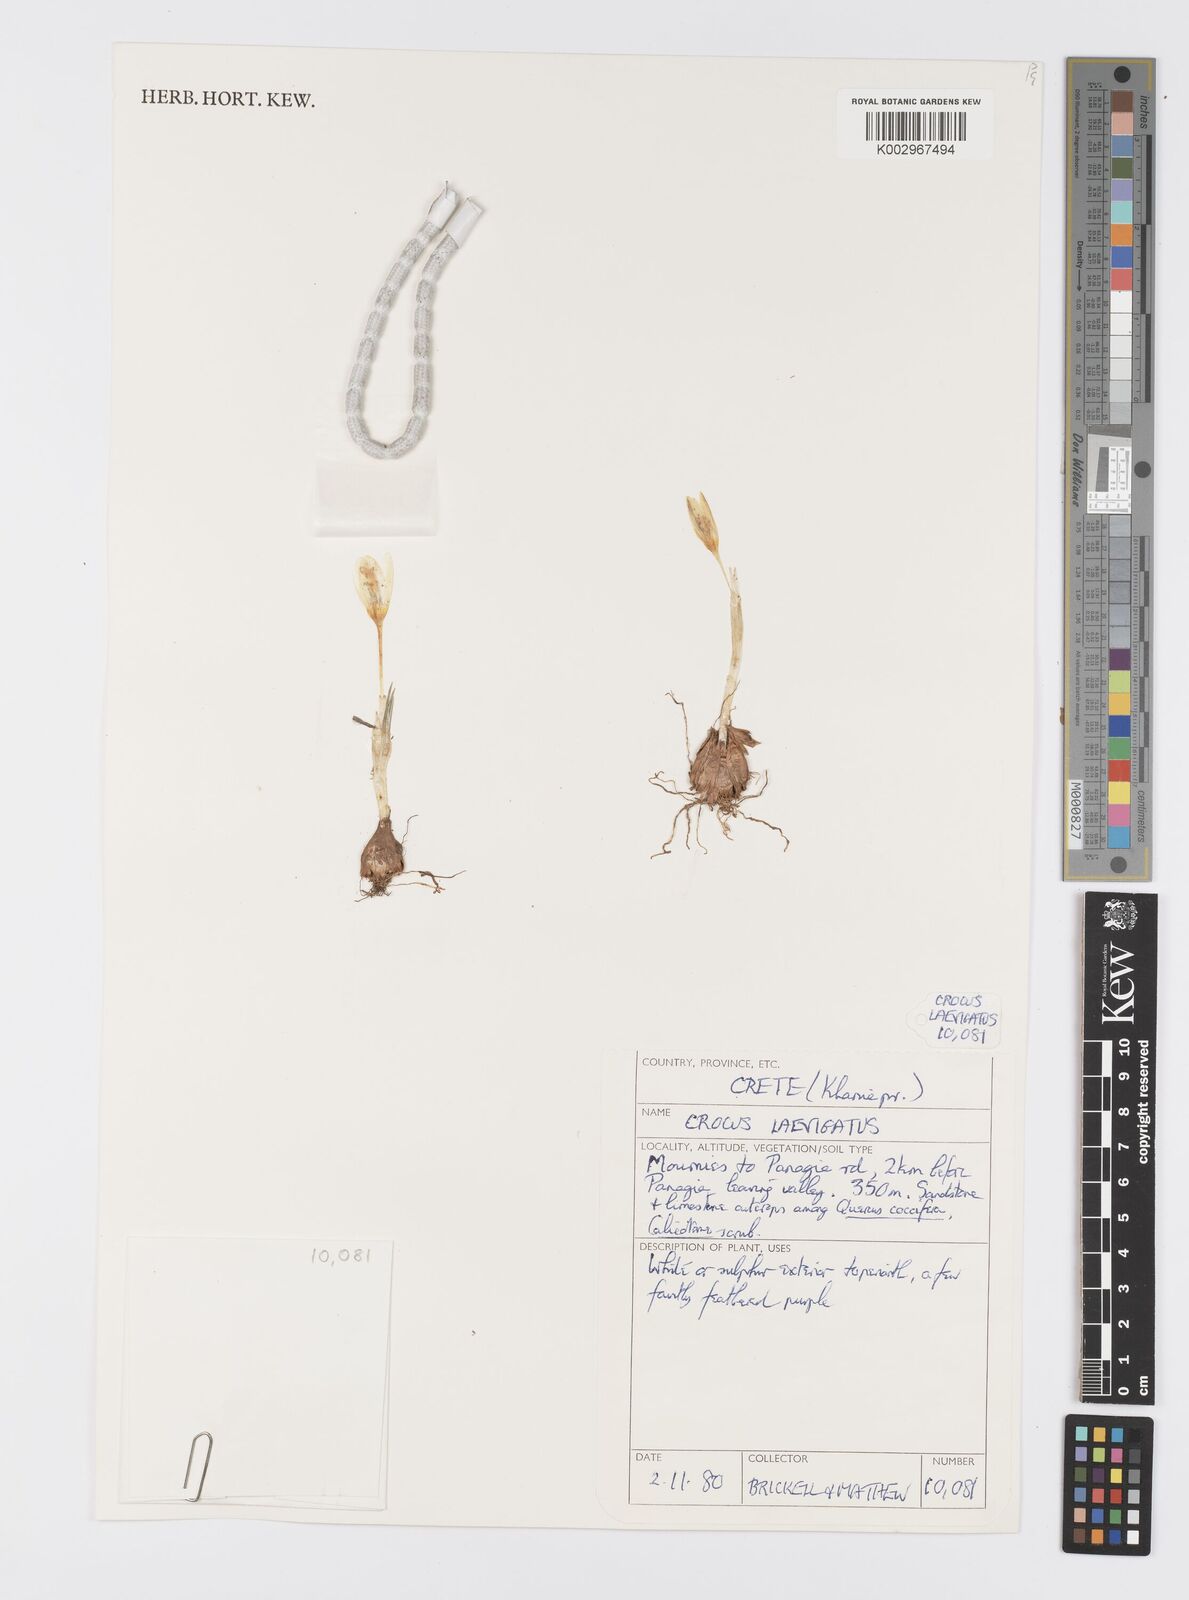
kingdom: Plantae
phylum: Tracheophyta
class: Liliopsida
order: Asparagales
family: Iridaceae
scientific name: Iridaceae
